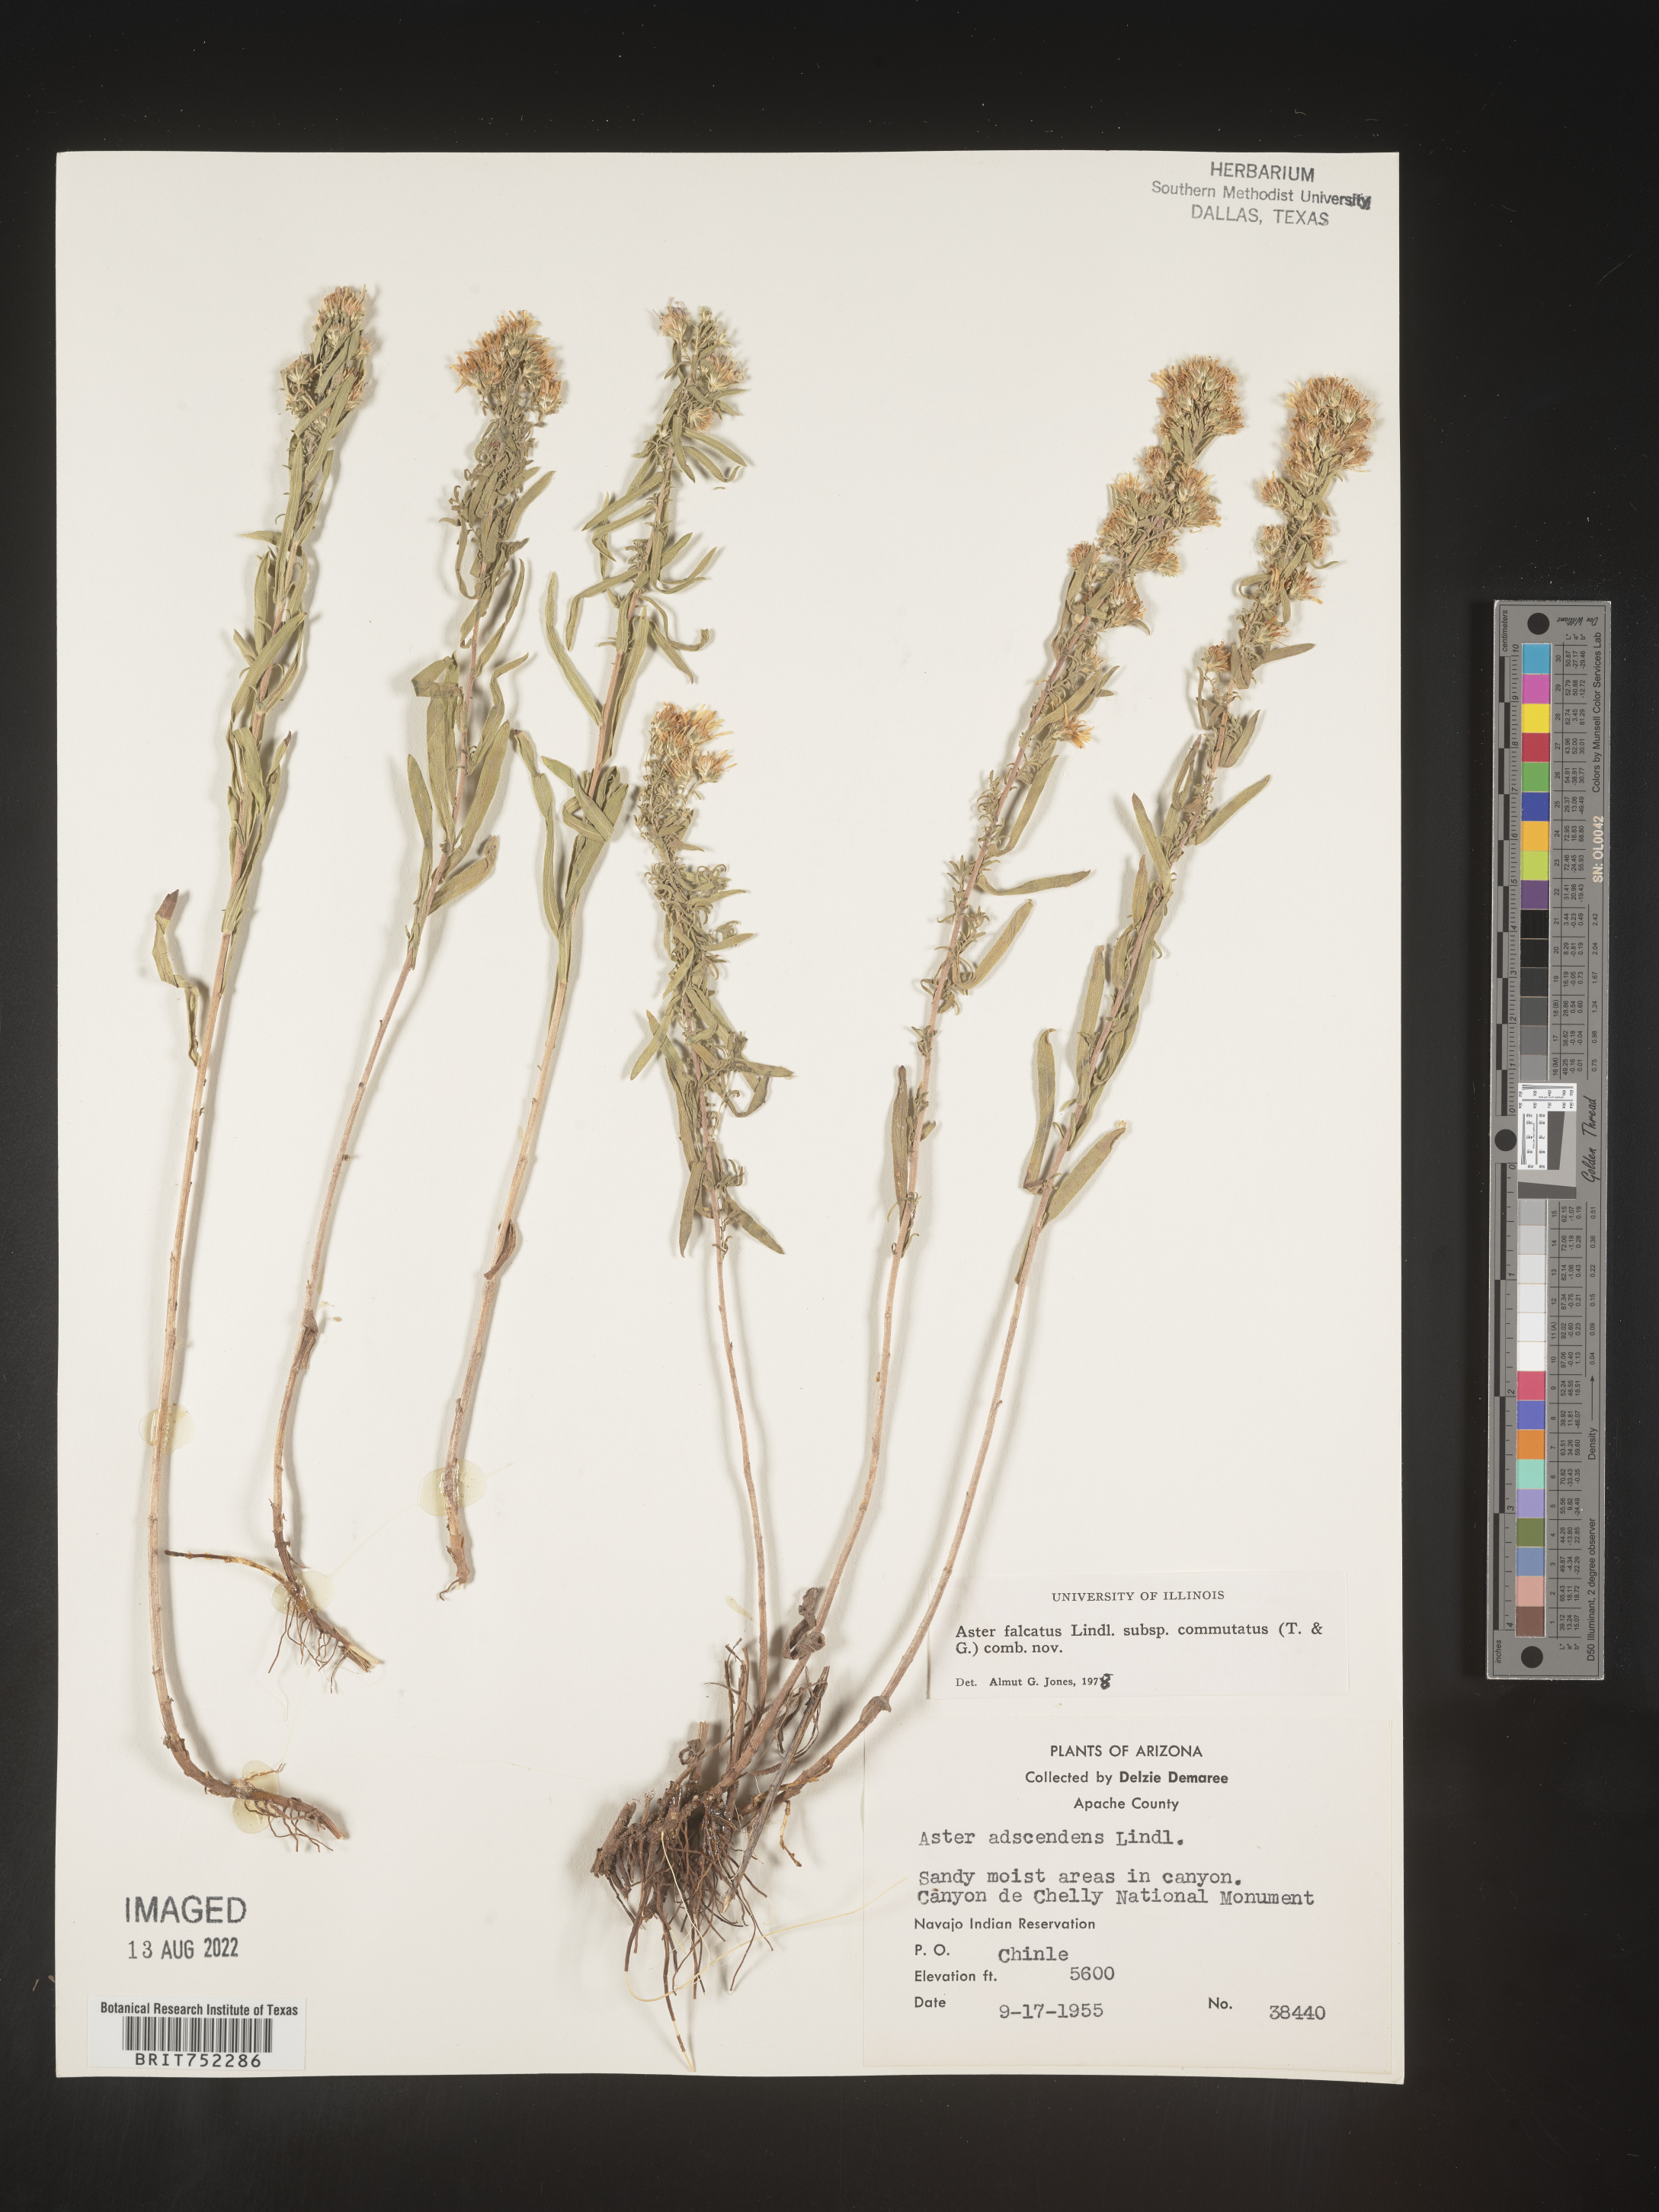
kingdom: Plantae
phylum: Tracheophyta
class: Magnoliopsida
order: Asterales
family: Asteraceae
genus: Symphyotrichum
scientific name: Symphyotrichum falcatum
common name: Creeping white prairie aster
